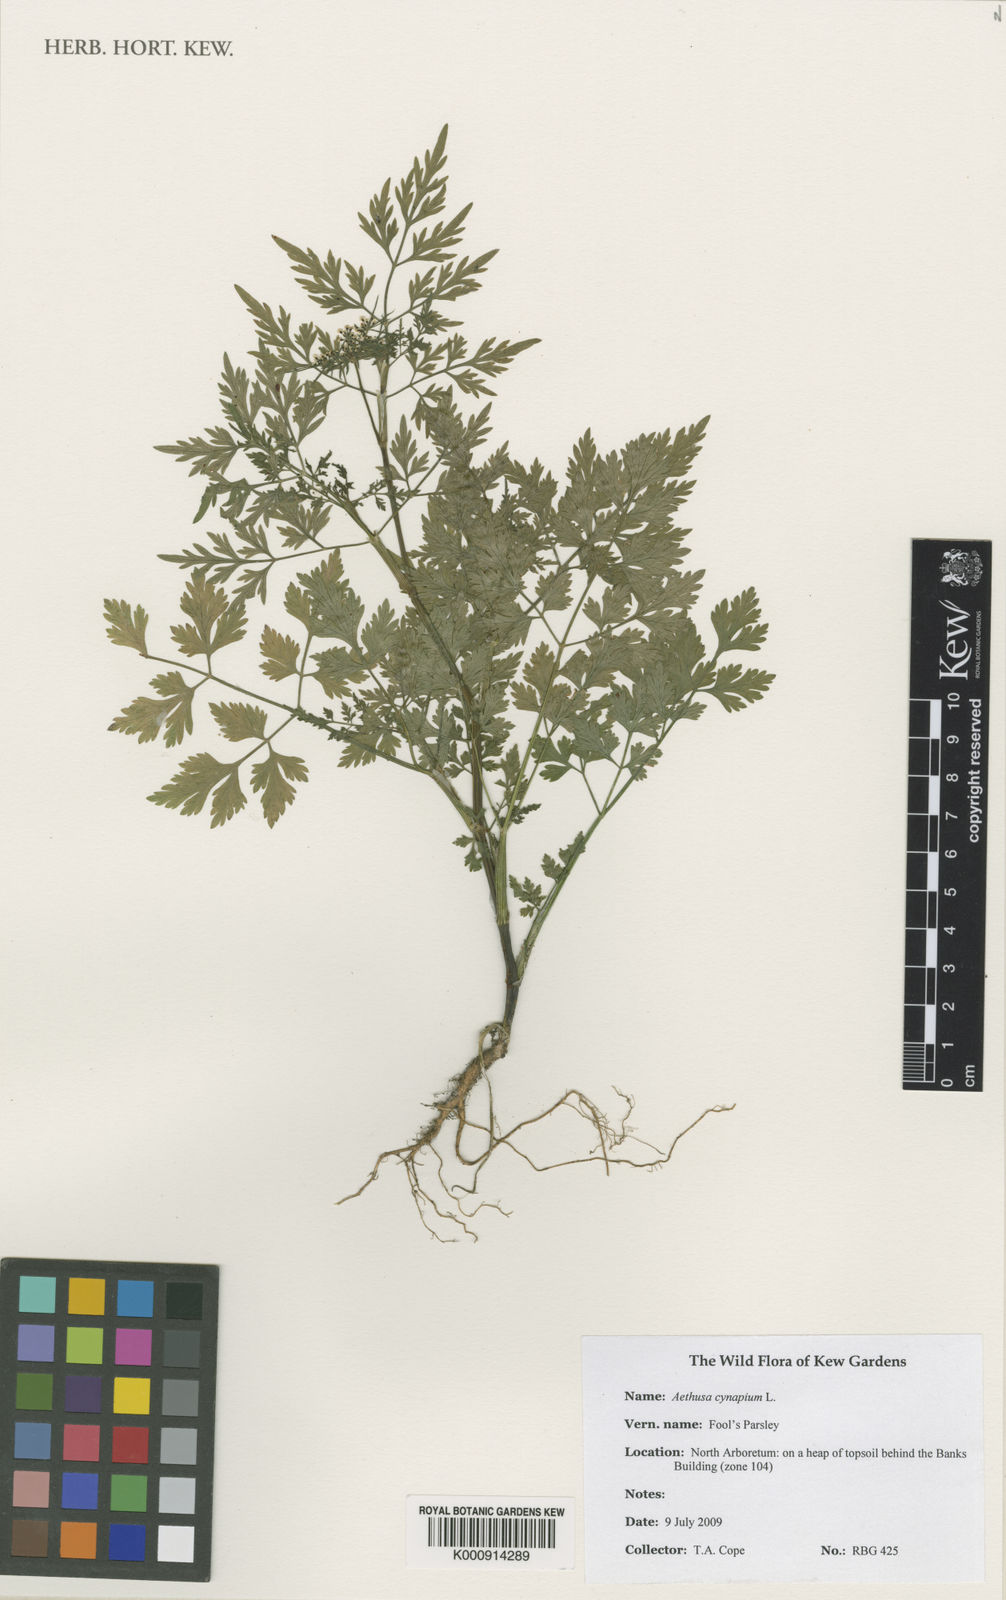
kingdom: Plantae
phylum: Tracheophyta
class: Magnoliopsida
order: Apiales
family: Apiaceae
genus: Aethusa
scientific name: Aethusa cynapium
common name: Fool's parsley
